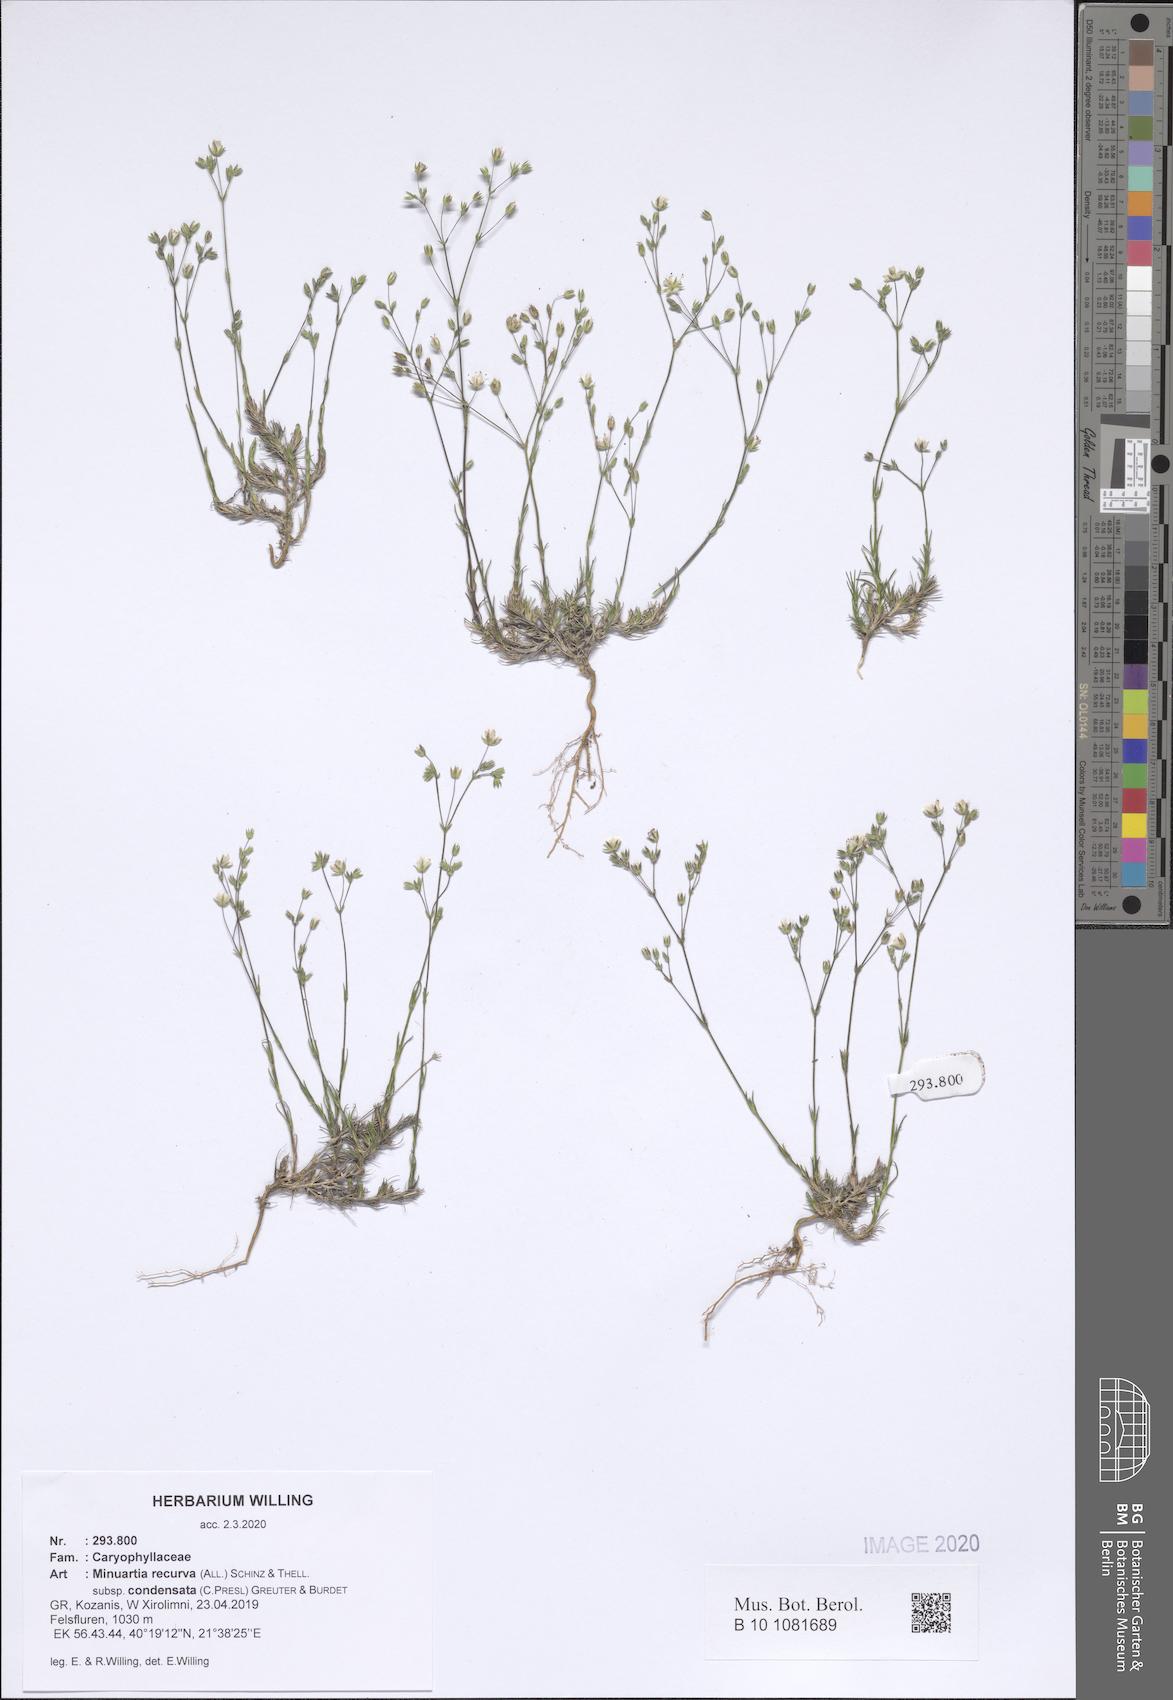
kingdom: Plantae
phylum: Tracheophyta
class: Magnoliopsida
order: Caryophyllales
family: Caryophyllaceae
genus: Minuartia
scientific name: Minuartia recurva
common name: Recurved sandwort
